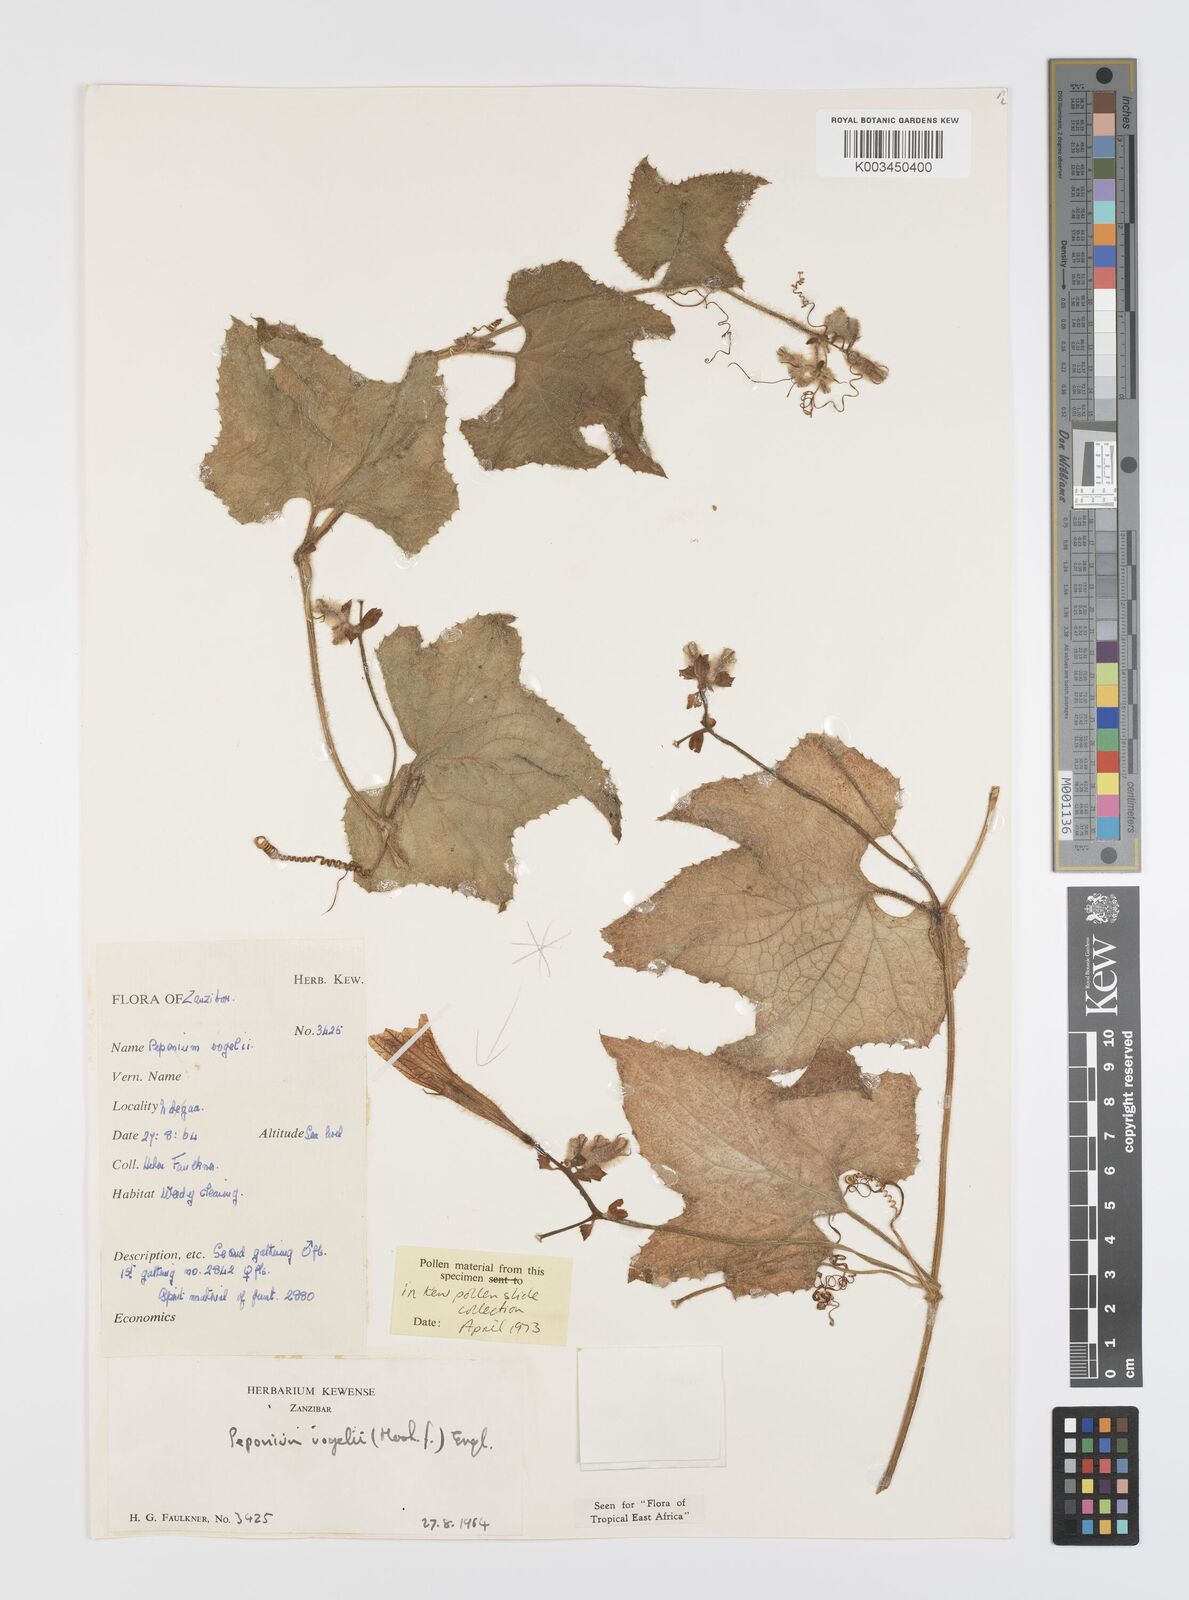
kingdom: Plantae
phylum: Tracheophyta
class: Magnoliopsida
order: Cucurbitales
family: Cucurbitaceae
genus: Peponium
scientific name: Peponium vogelii
